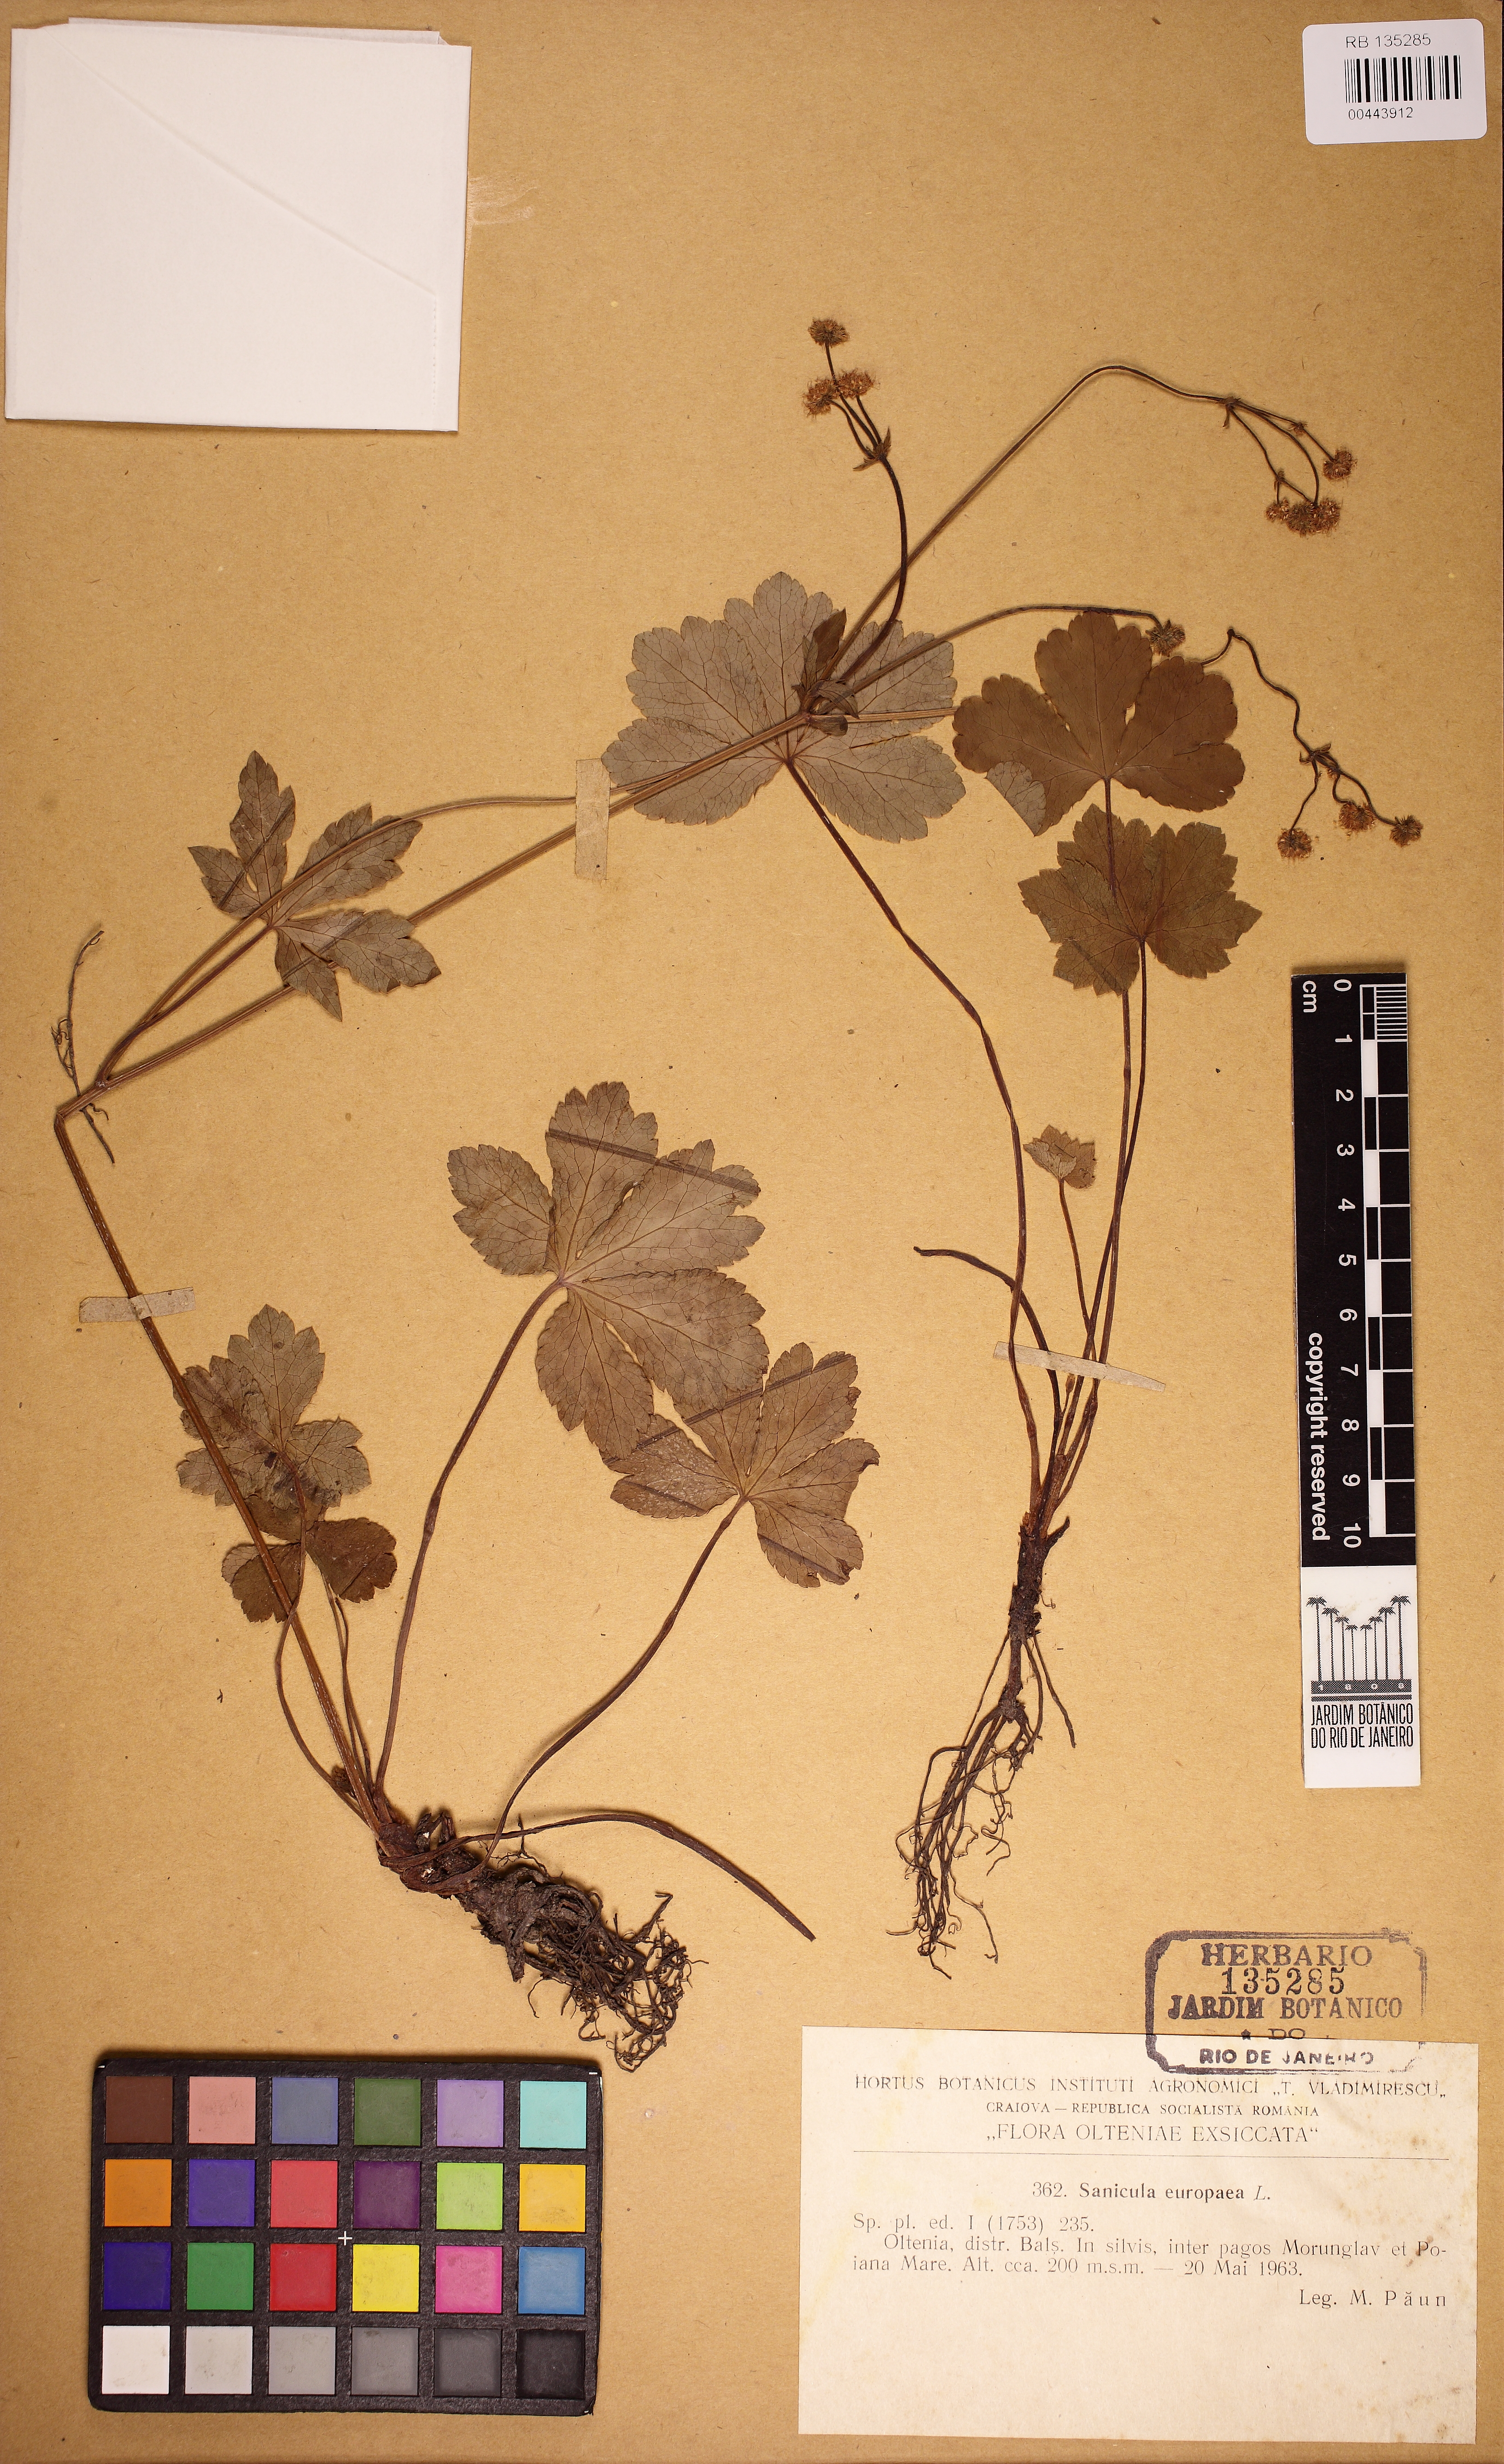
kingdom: Plantae
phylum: Tracheophyta
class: Magnoliopsida
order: Apiales
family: Apiaceae
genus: Sanicula
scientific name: Sanicula europaea
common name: Sanicle
